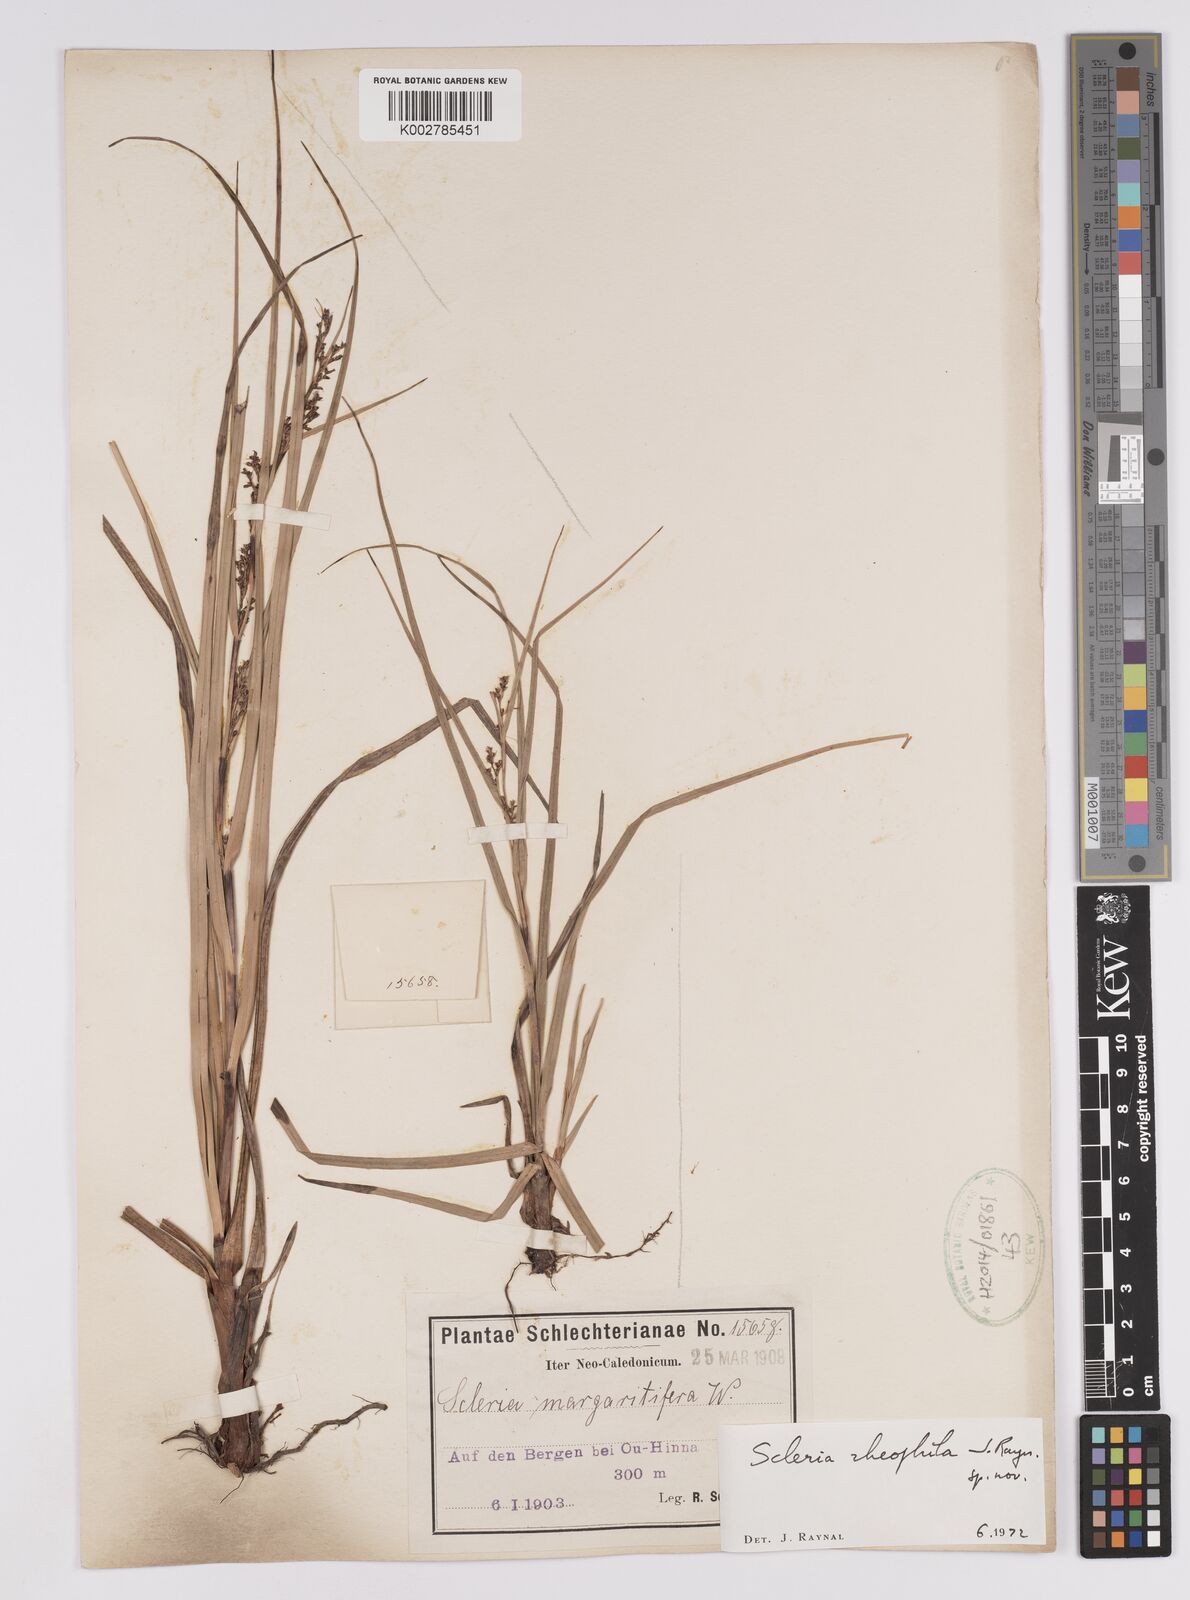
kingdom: Plantae
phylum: Tracheophyta
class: Liliopsida
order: Poales
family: Cyperaceae
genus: Scleria
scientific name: Scleria
